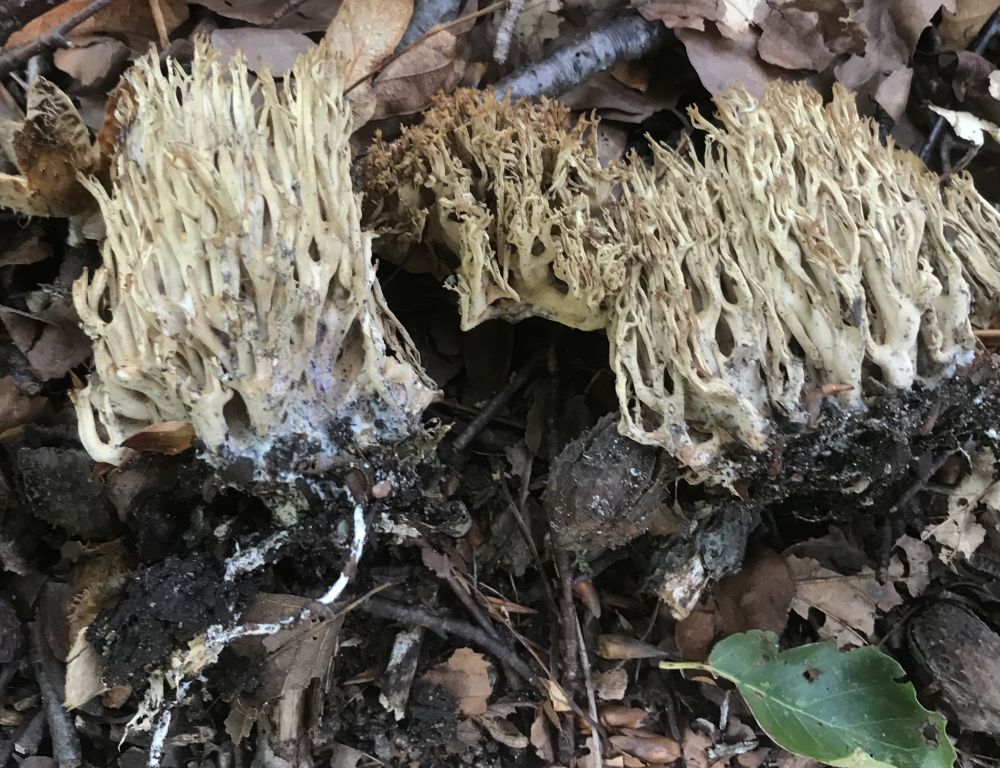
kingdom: Fungi
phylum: Basidiomycota
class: Agaricomycetes
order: Gomphales
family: Gomphaceae
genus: Ramaria
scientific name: Ramaria stricta
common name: rank koralsvamp
